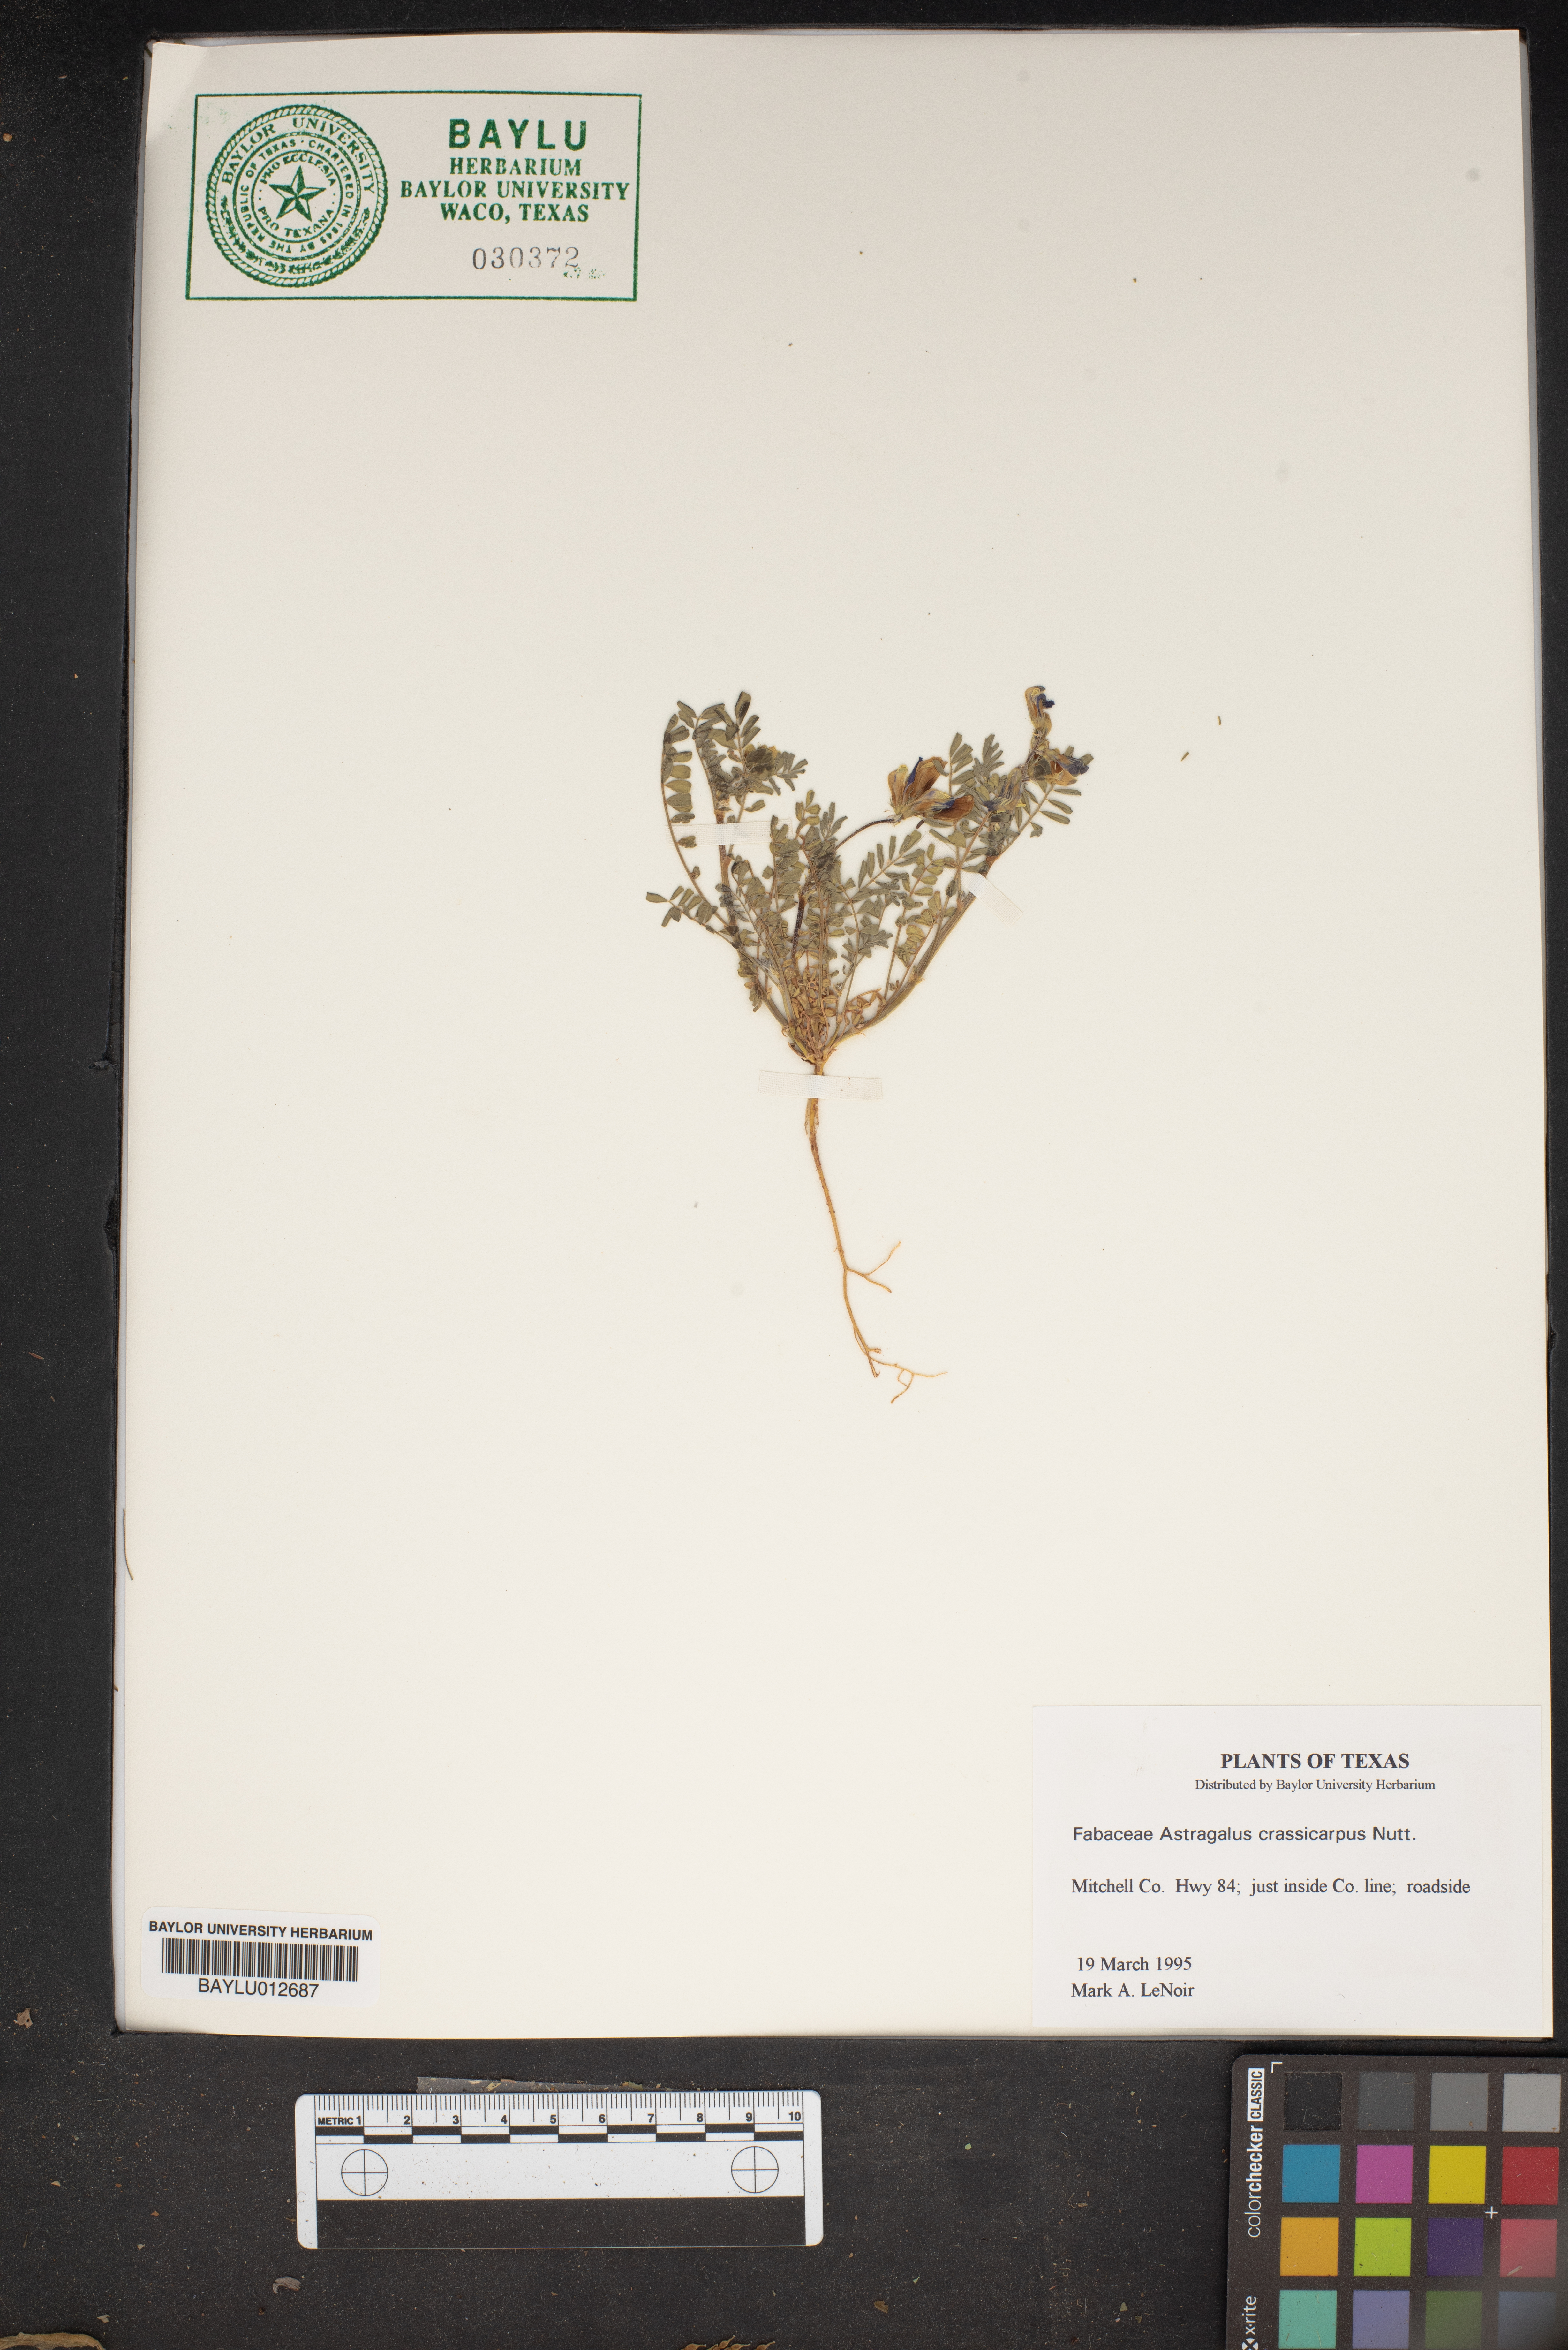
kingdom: Plantae
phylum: Tracheophyta
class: Magnoliopsida
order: Fabales
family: Fabaceae
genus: Astragalus
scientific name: Astragalus crassicarpus
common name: Ground-plum milk-vetch
